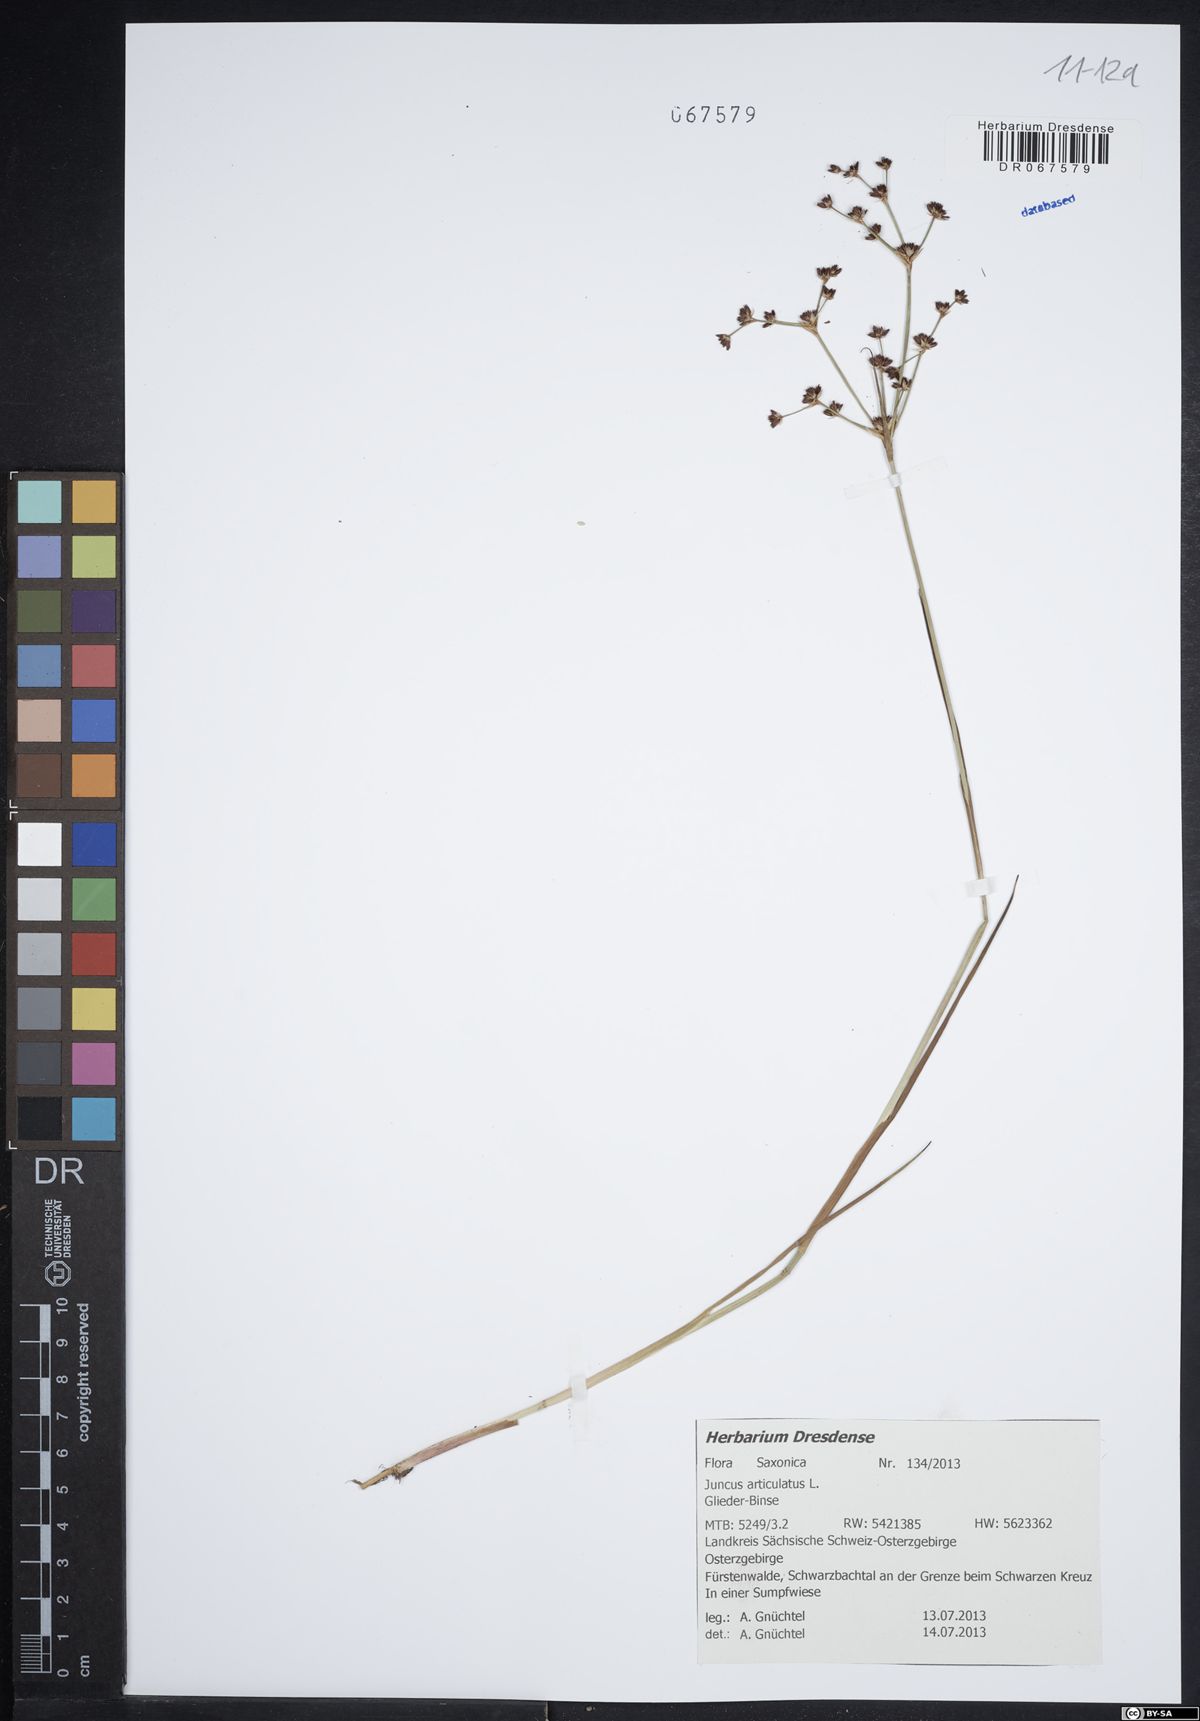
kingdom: Plantae
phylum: Tracheophyta
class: Liliopsida
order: Poales
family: Juncaceae
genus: Juncus
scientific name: Juncus articulatus
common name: Jointed rush
